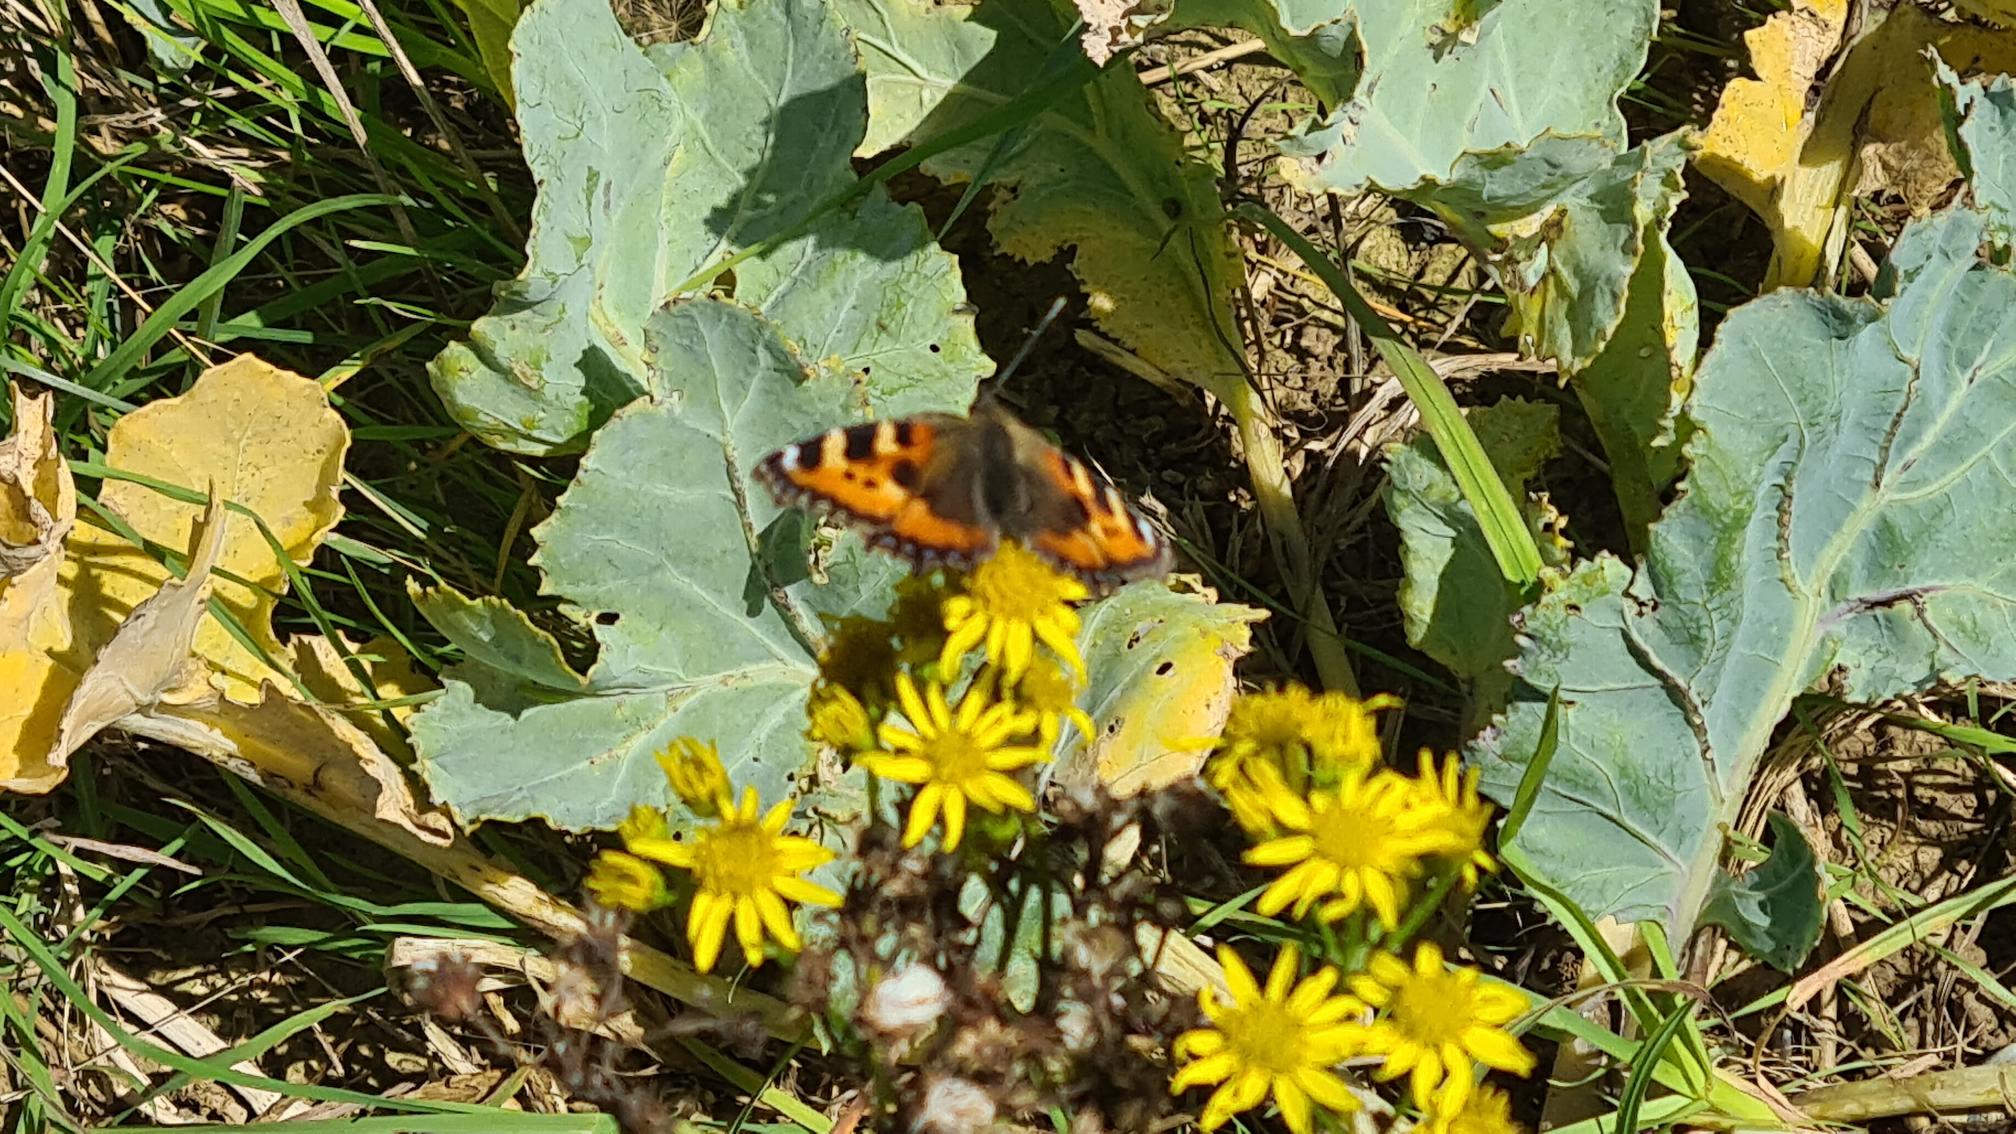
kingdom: Animalia
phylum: Arthropoda
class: Insecta
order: Lepidoptera
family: Nymphalidae
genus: Aglais
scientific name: Aglais urticae
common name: Nældens takvinge
